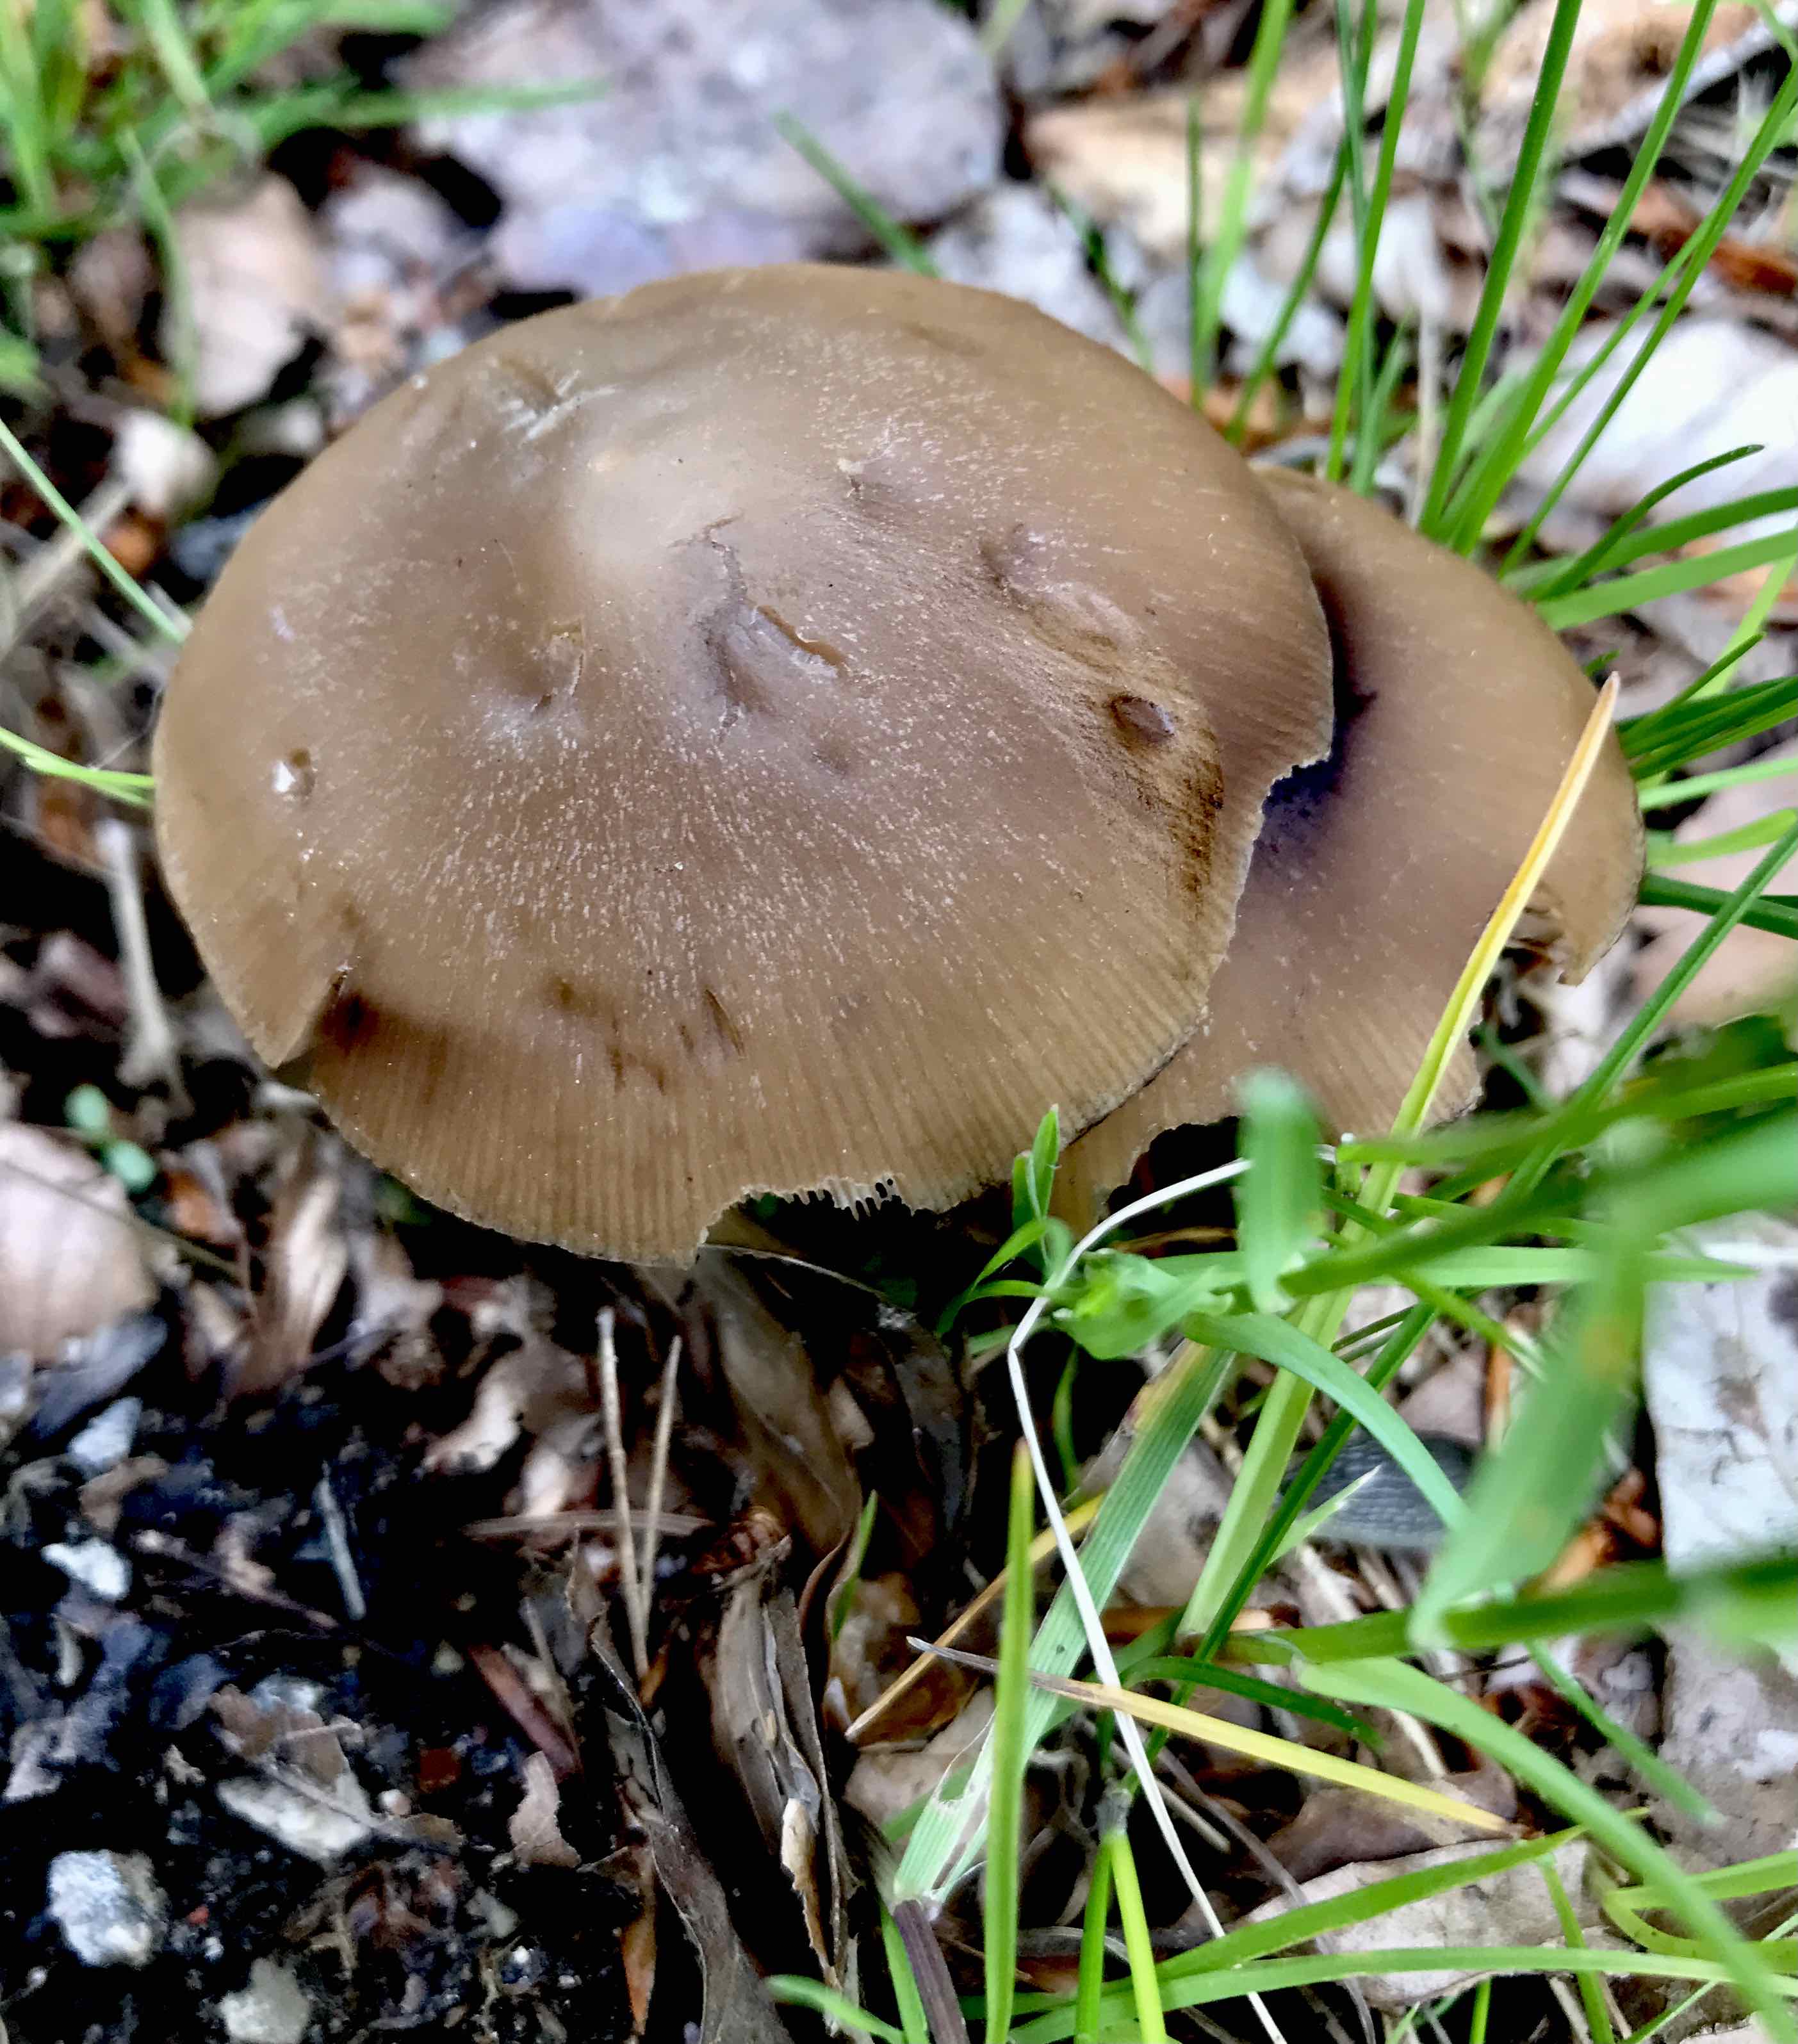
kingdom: Fungi
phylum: Basidiomycota
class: Agaricomycetes
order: Agaricales
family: Psathyrellaceae
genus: Psathyrella
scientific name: Psathyrella spadiceogrisea
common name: gråbrun mørkhat
